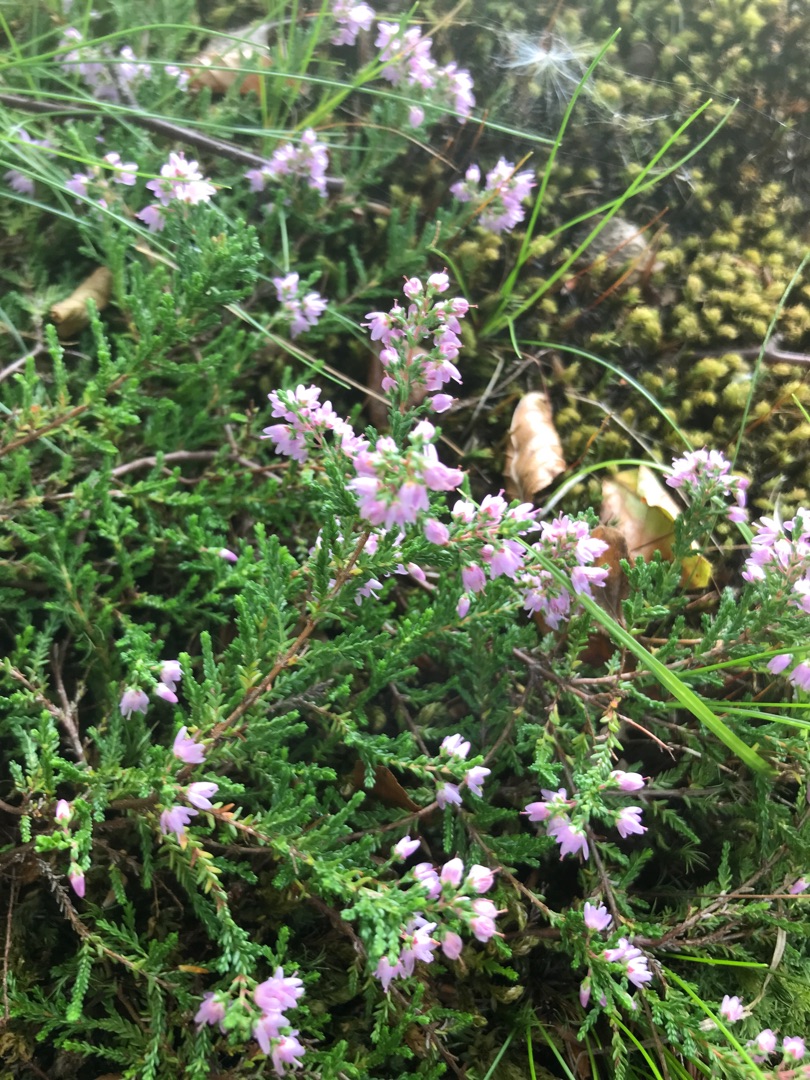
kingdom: Plantae
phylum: Tracheophyta
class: Magnoliopsida
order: Ericales
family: Ericaceae
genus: Calluna
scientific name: Calluna vulgaris
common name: Hedelyng
